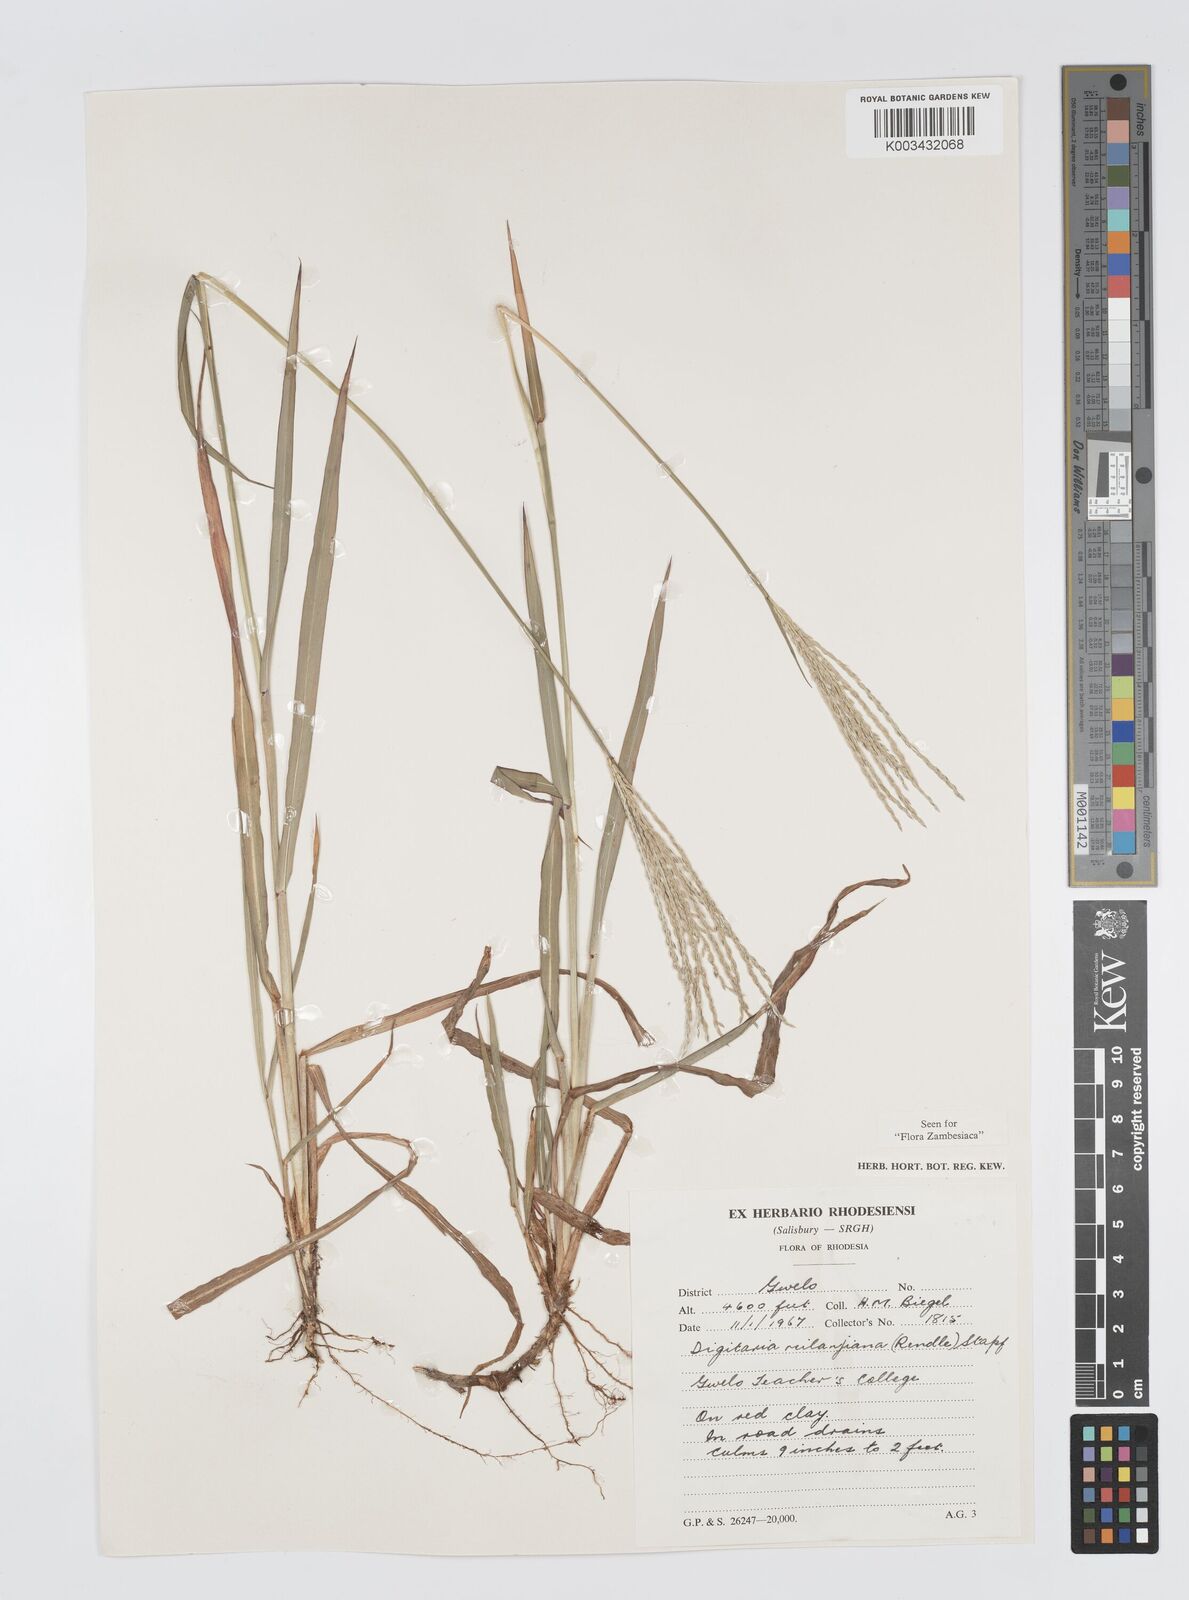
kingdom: Plantae
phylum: Tracheophyta
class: Liliopsida
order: Poales
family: Poaceae
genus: Digitaria
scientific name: Digitaria milanjiana
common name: Madagascar crabgrass
